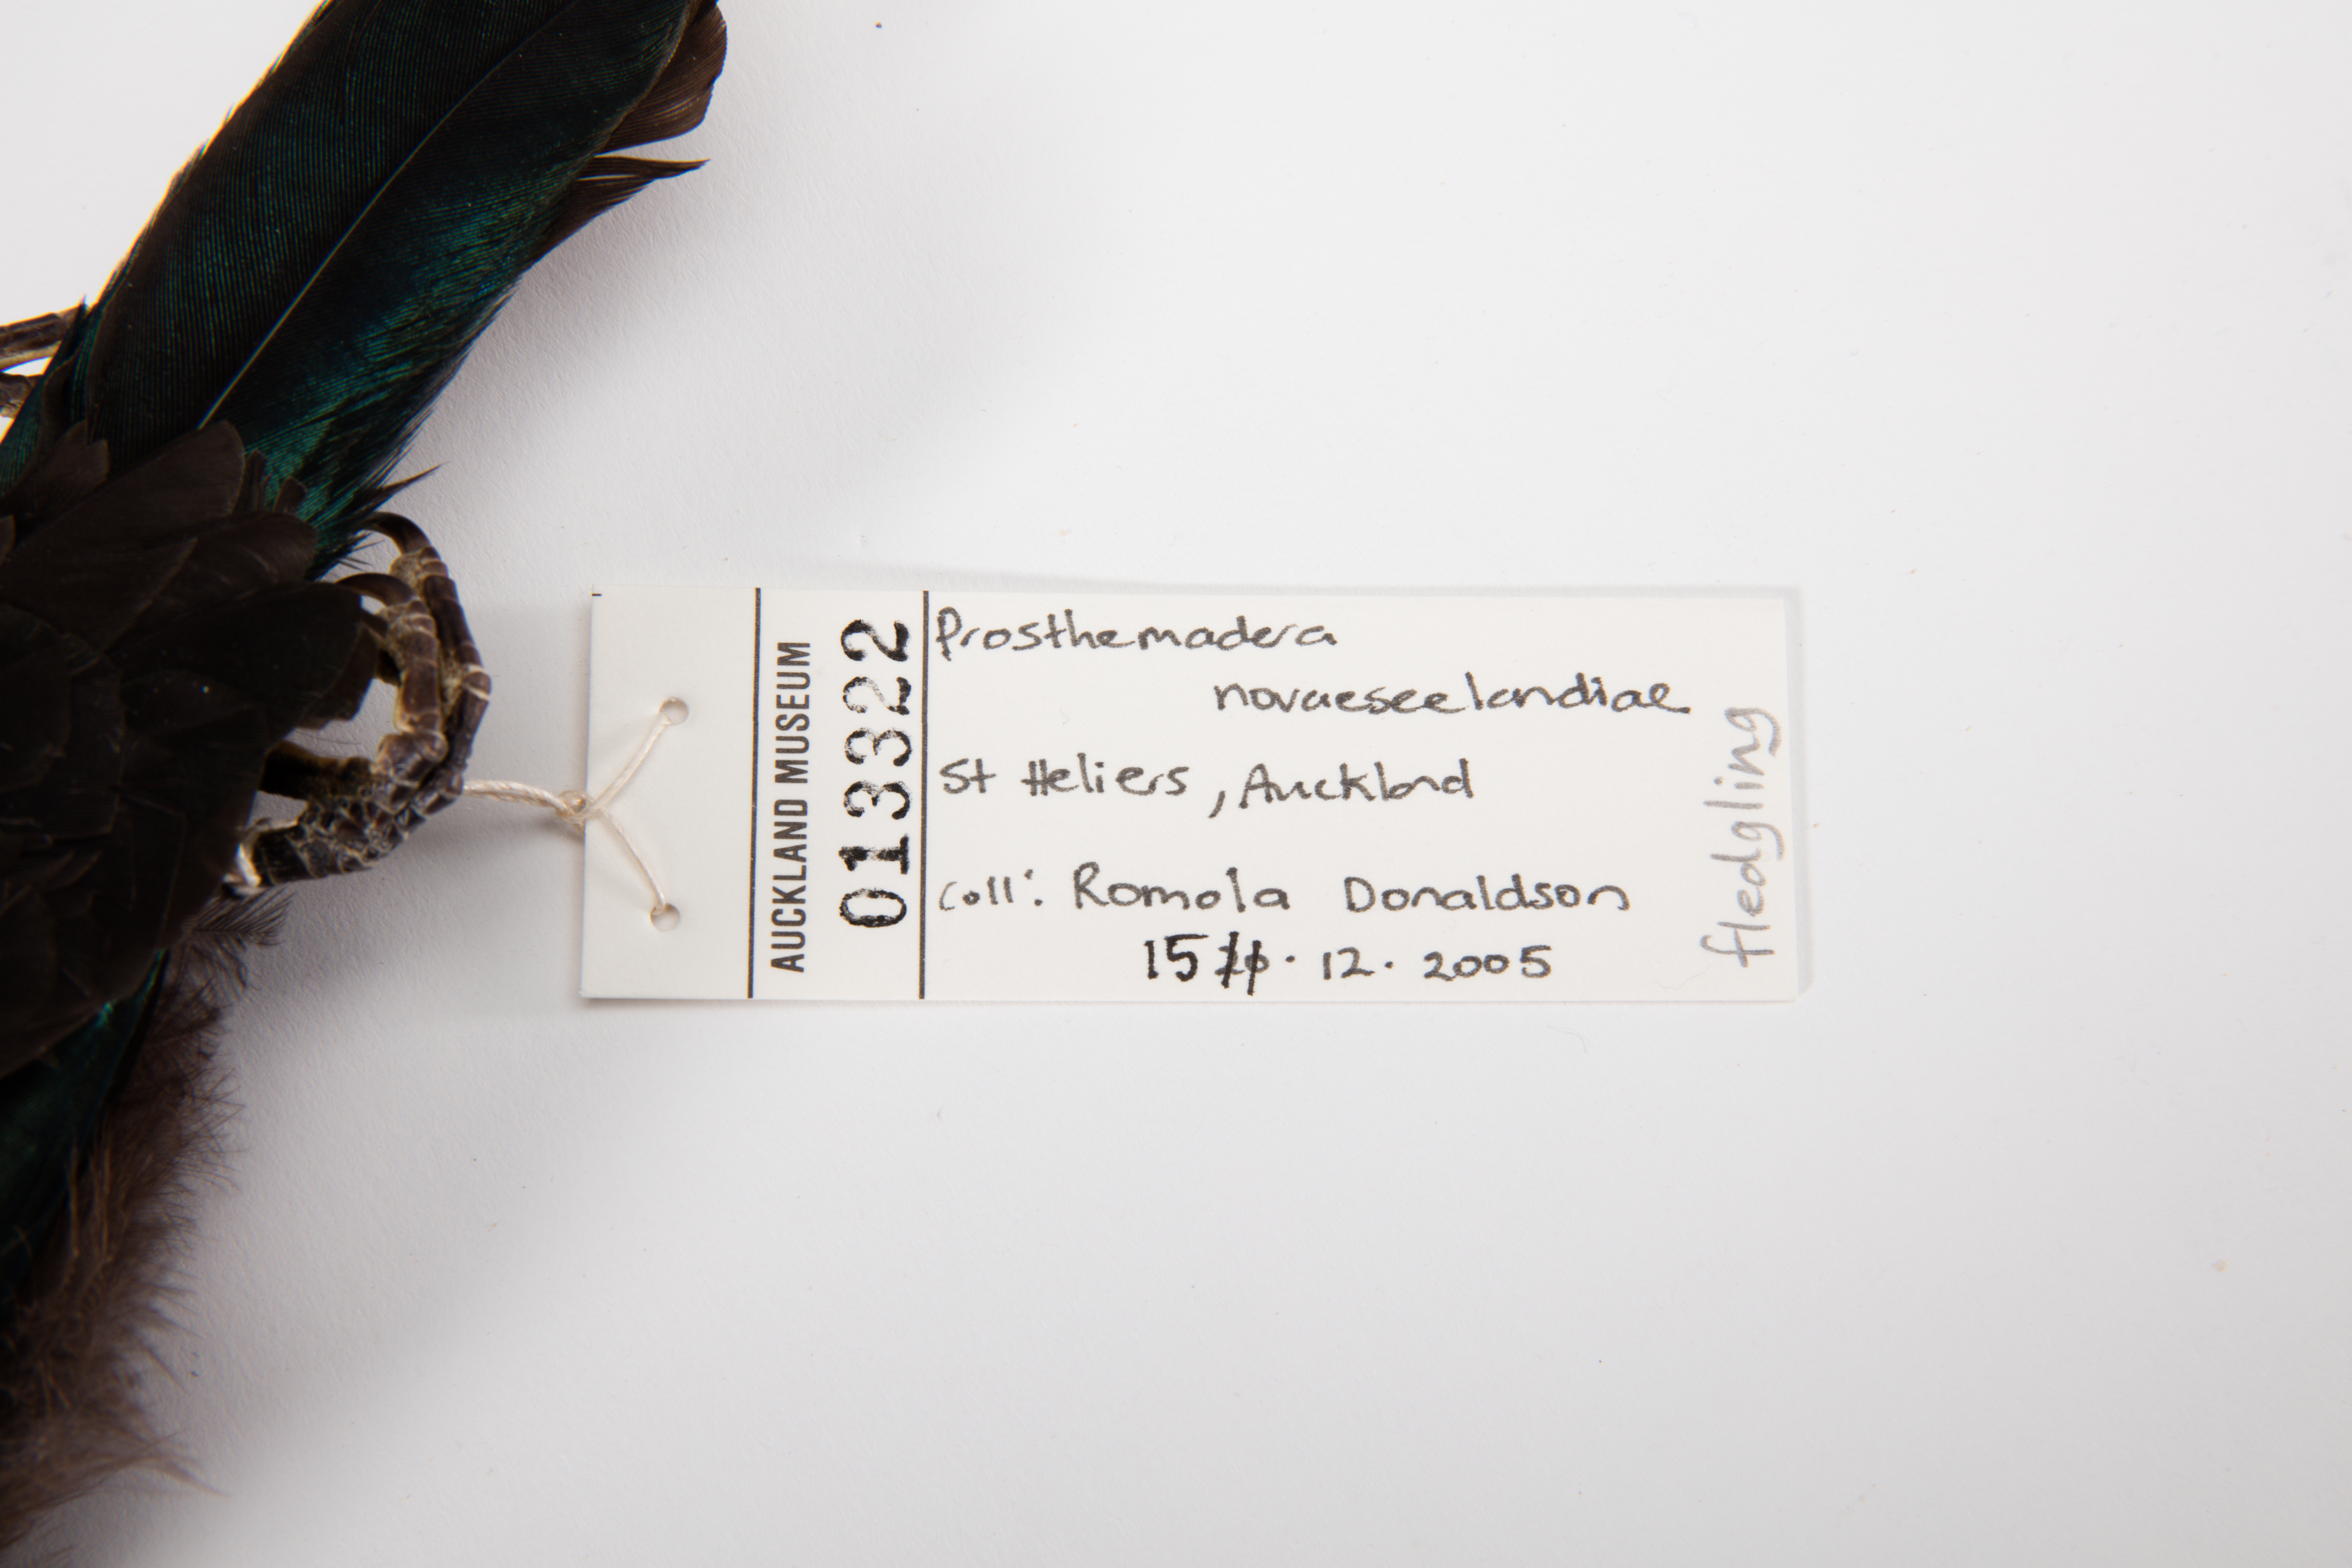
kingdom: Animalia
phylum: Chordata
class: Aves
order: Passeriformes
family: Meliphagidae
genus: Prosthemadera
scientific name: Prosthemadera novaeseelandiae
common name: Tui
